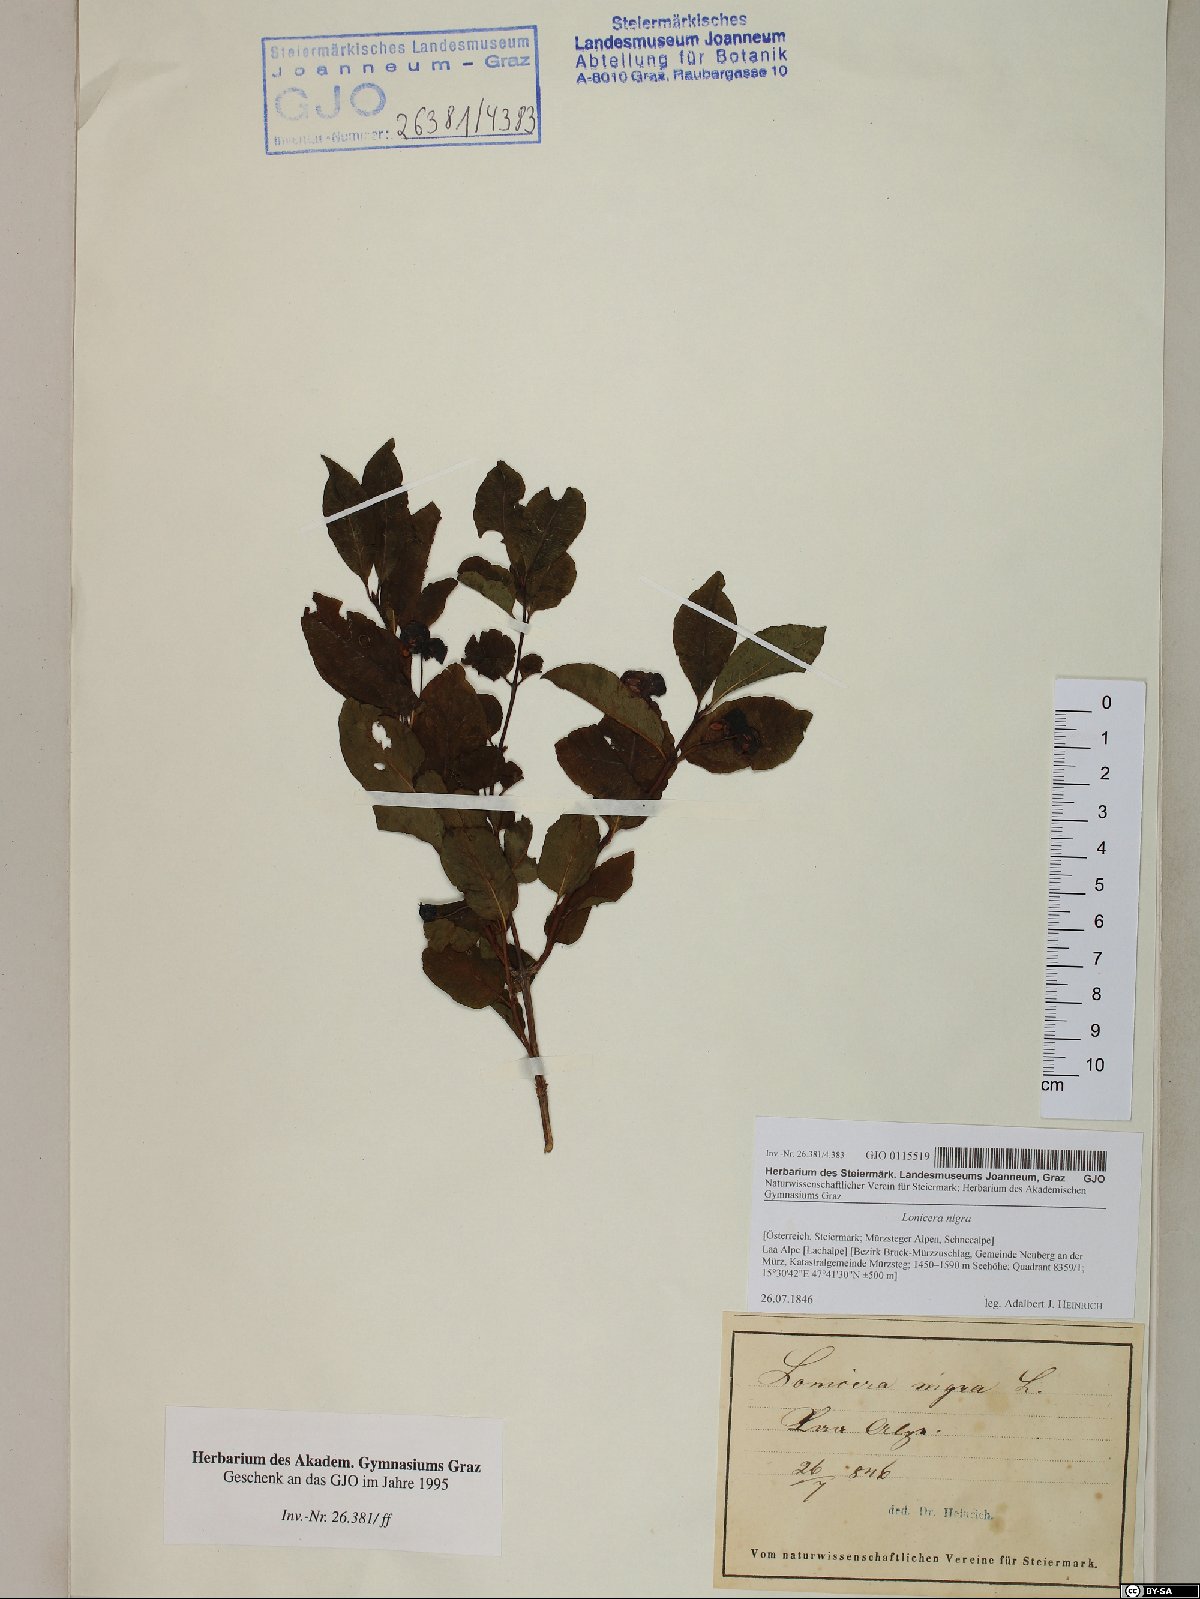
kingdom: Plantae
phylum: Tracheophyta
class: Magnoliopsida
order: Dipsacales
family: Caprifoliaceae
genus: Lonicera
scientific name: Lonicera nigra
